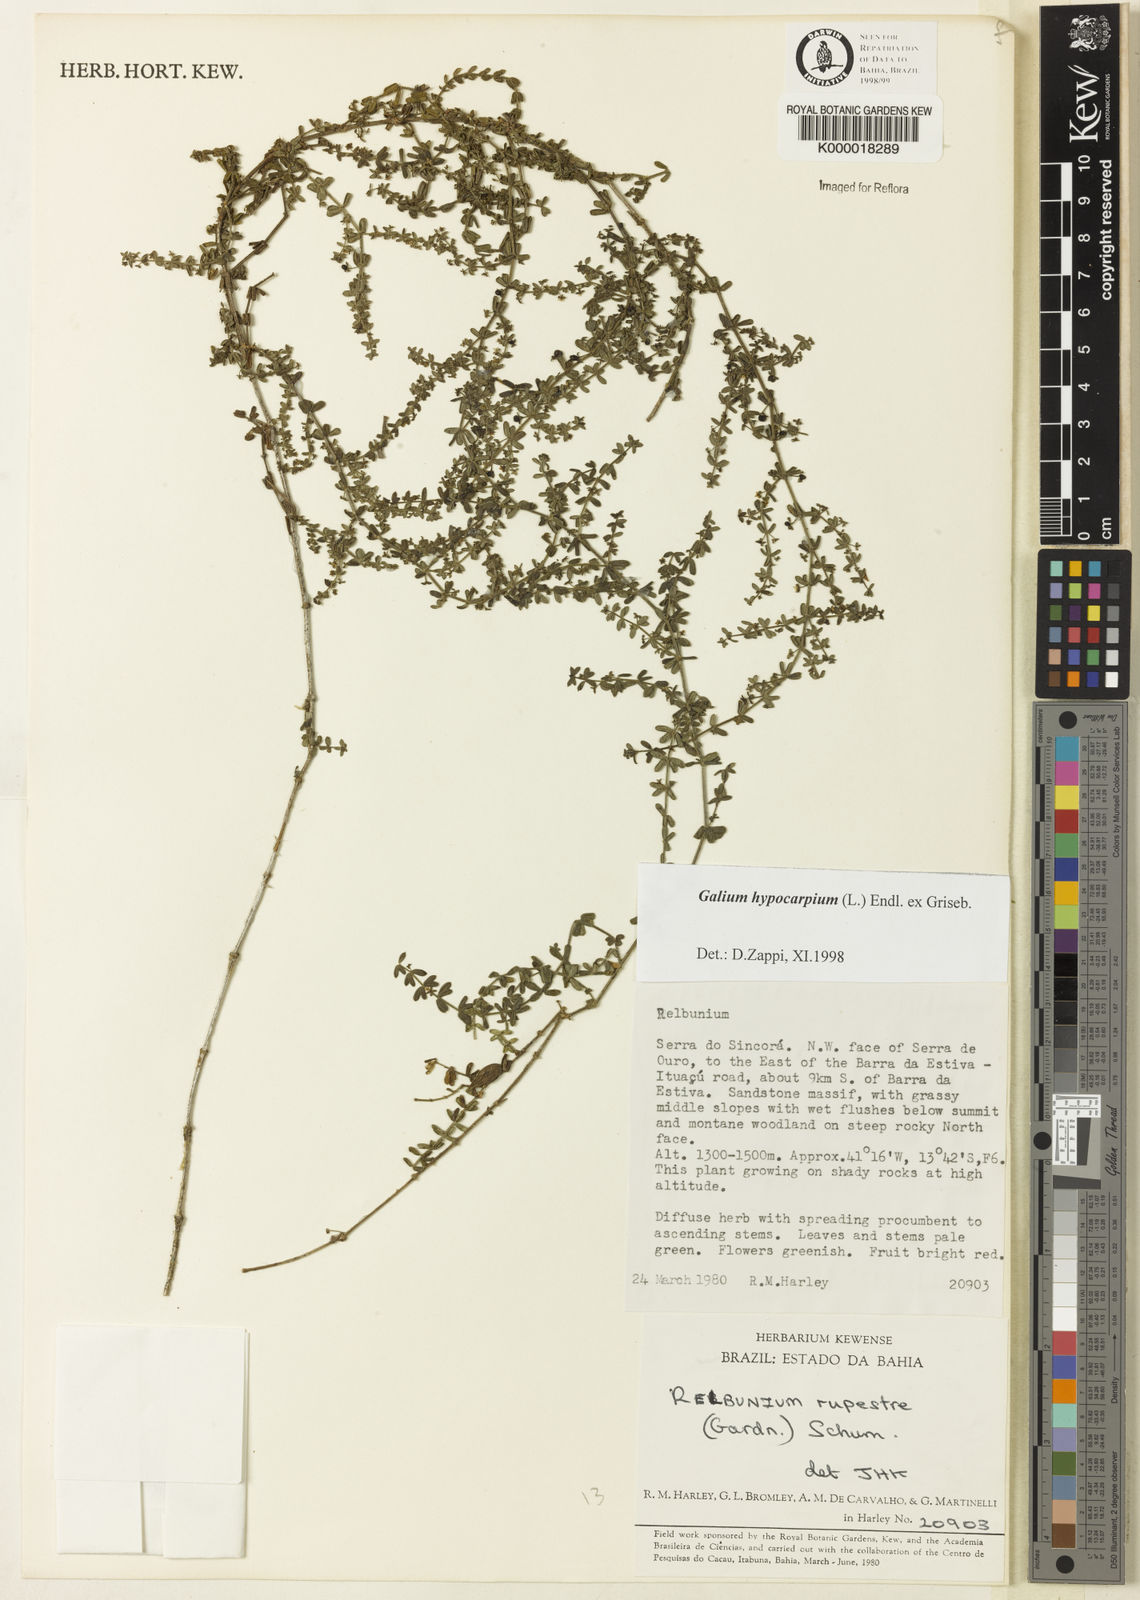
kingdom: Plantae
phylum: Tracheophyta
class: Magnoliopsida
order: Gentianales
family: Rubiaceae
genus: Galium
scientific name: Galium hypocarpium
